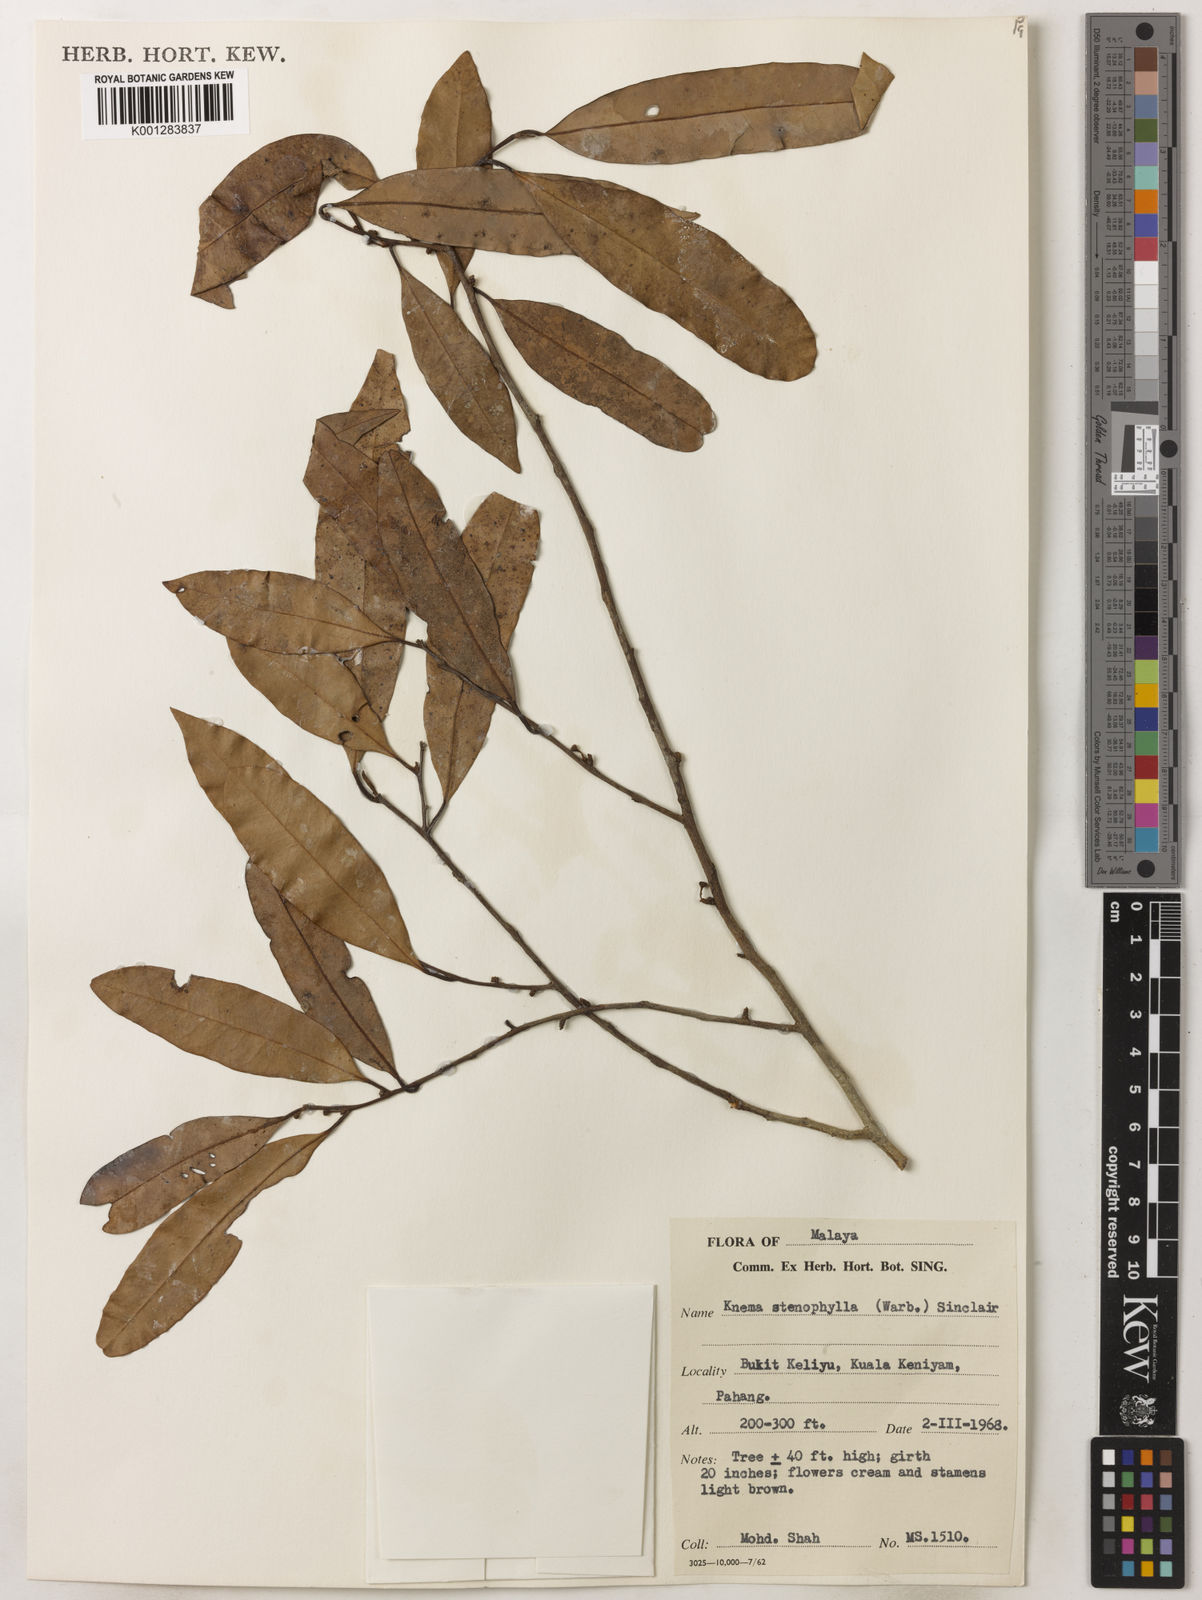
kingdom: Plantae
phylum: Tracheophyta
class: Magnoliopsida
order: Magnoliales
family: Myristicaceae
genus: Knema
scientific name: Knema stenophylla
